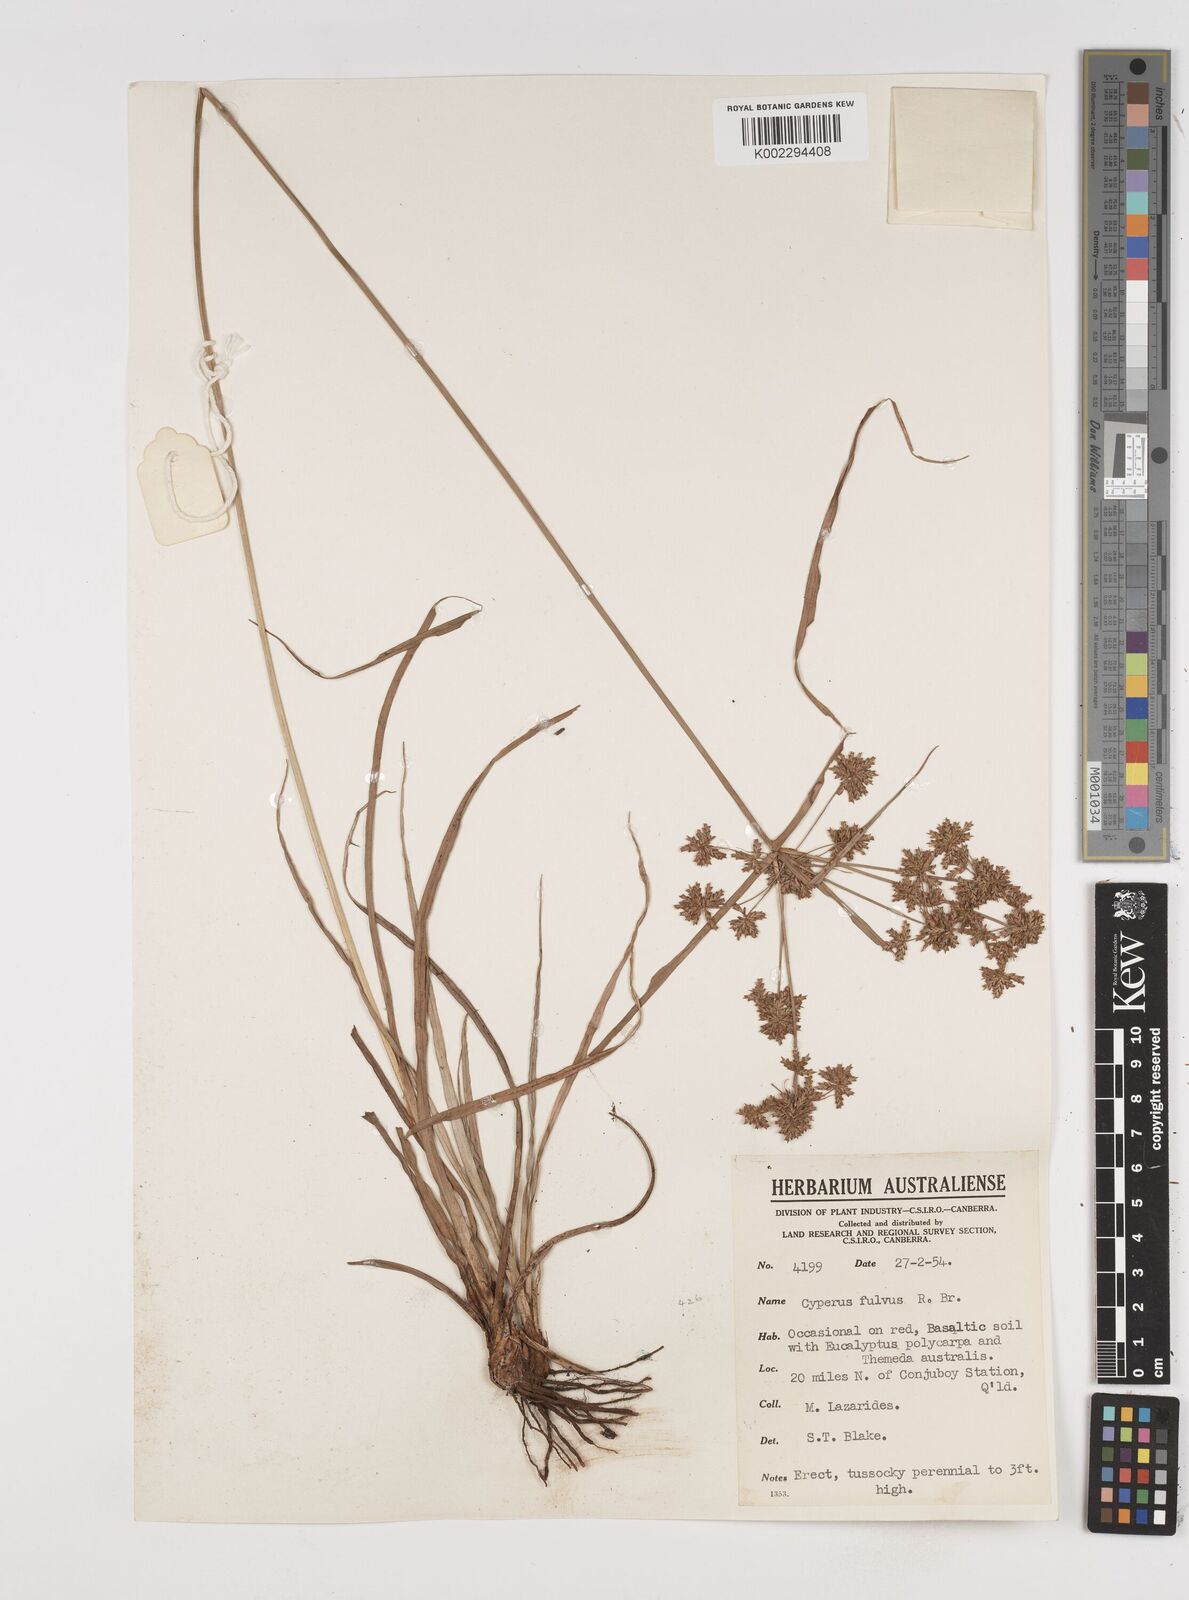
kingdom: Plantae
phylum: Tracheophyta
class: Liliopsida
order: Poales
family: Cyperaceae
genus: Cyperus
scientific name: Cyperus fulvus
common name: Sticky sedge
